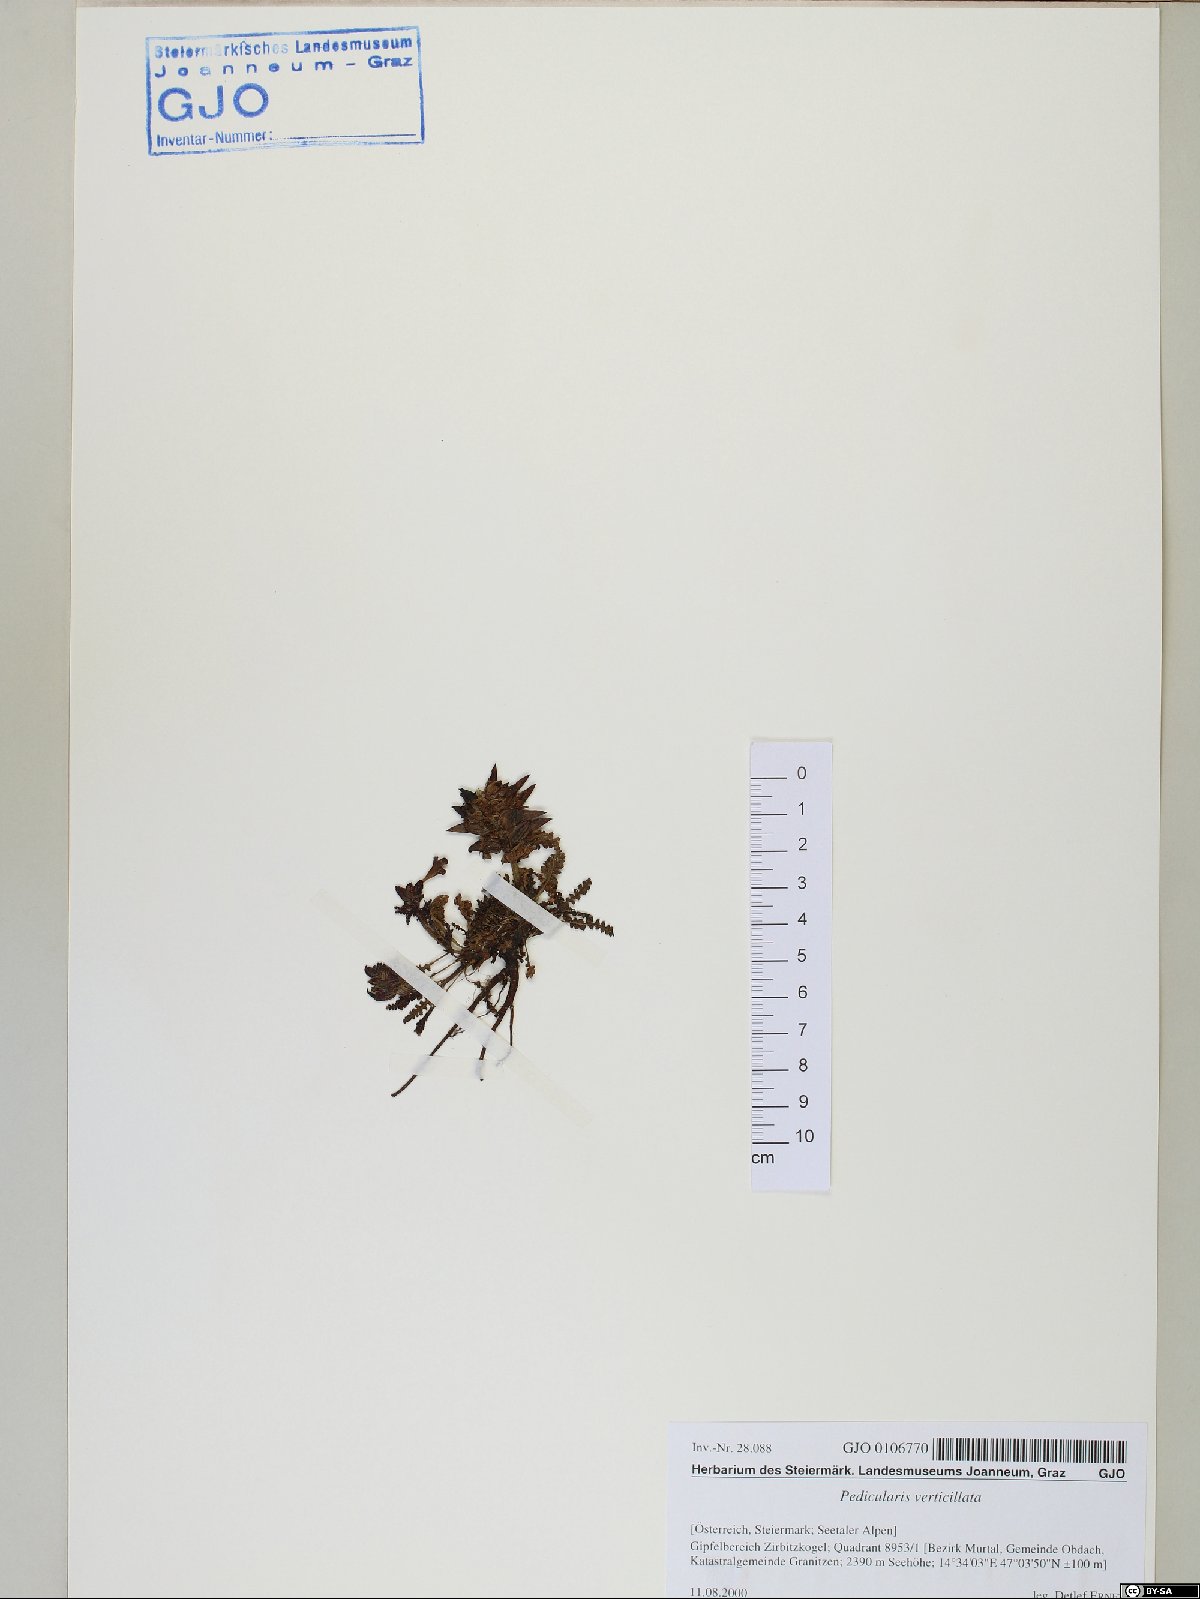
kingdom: Plantae
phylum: Tracheophyta
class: Magnoliopsida
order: Lamiales
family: Orobanchaceae
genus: Pedicularis
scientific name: Pedicularis verticillata
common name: Whorled lousewort
